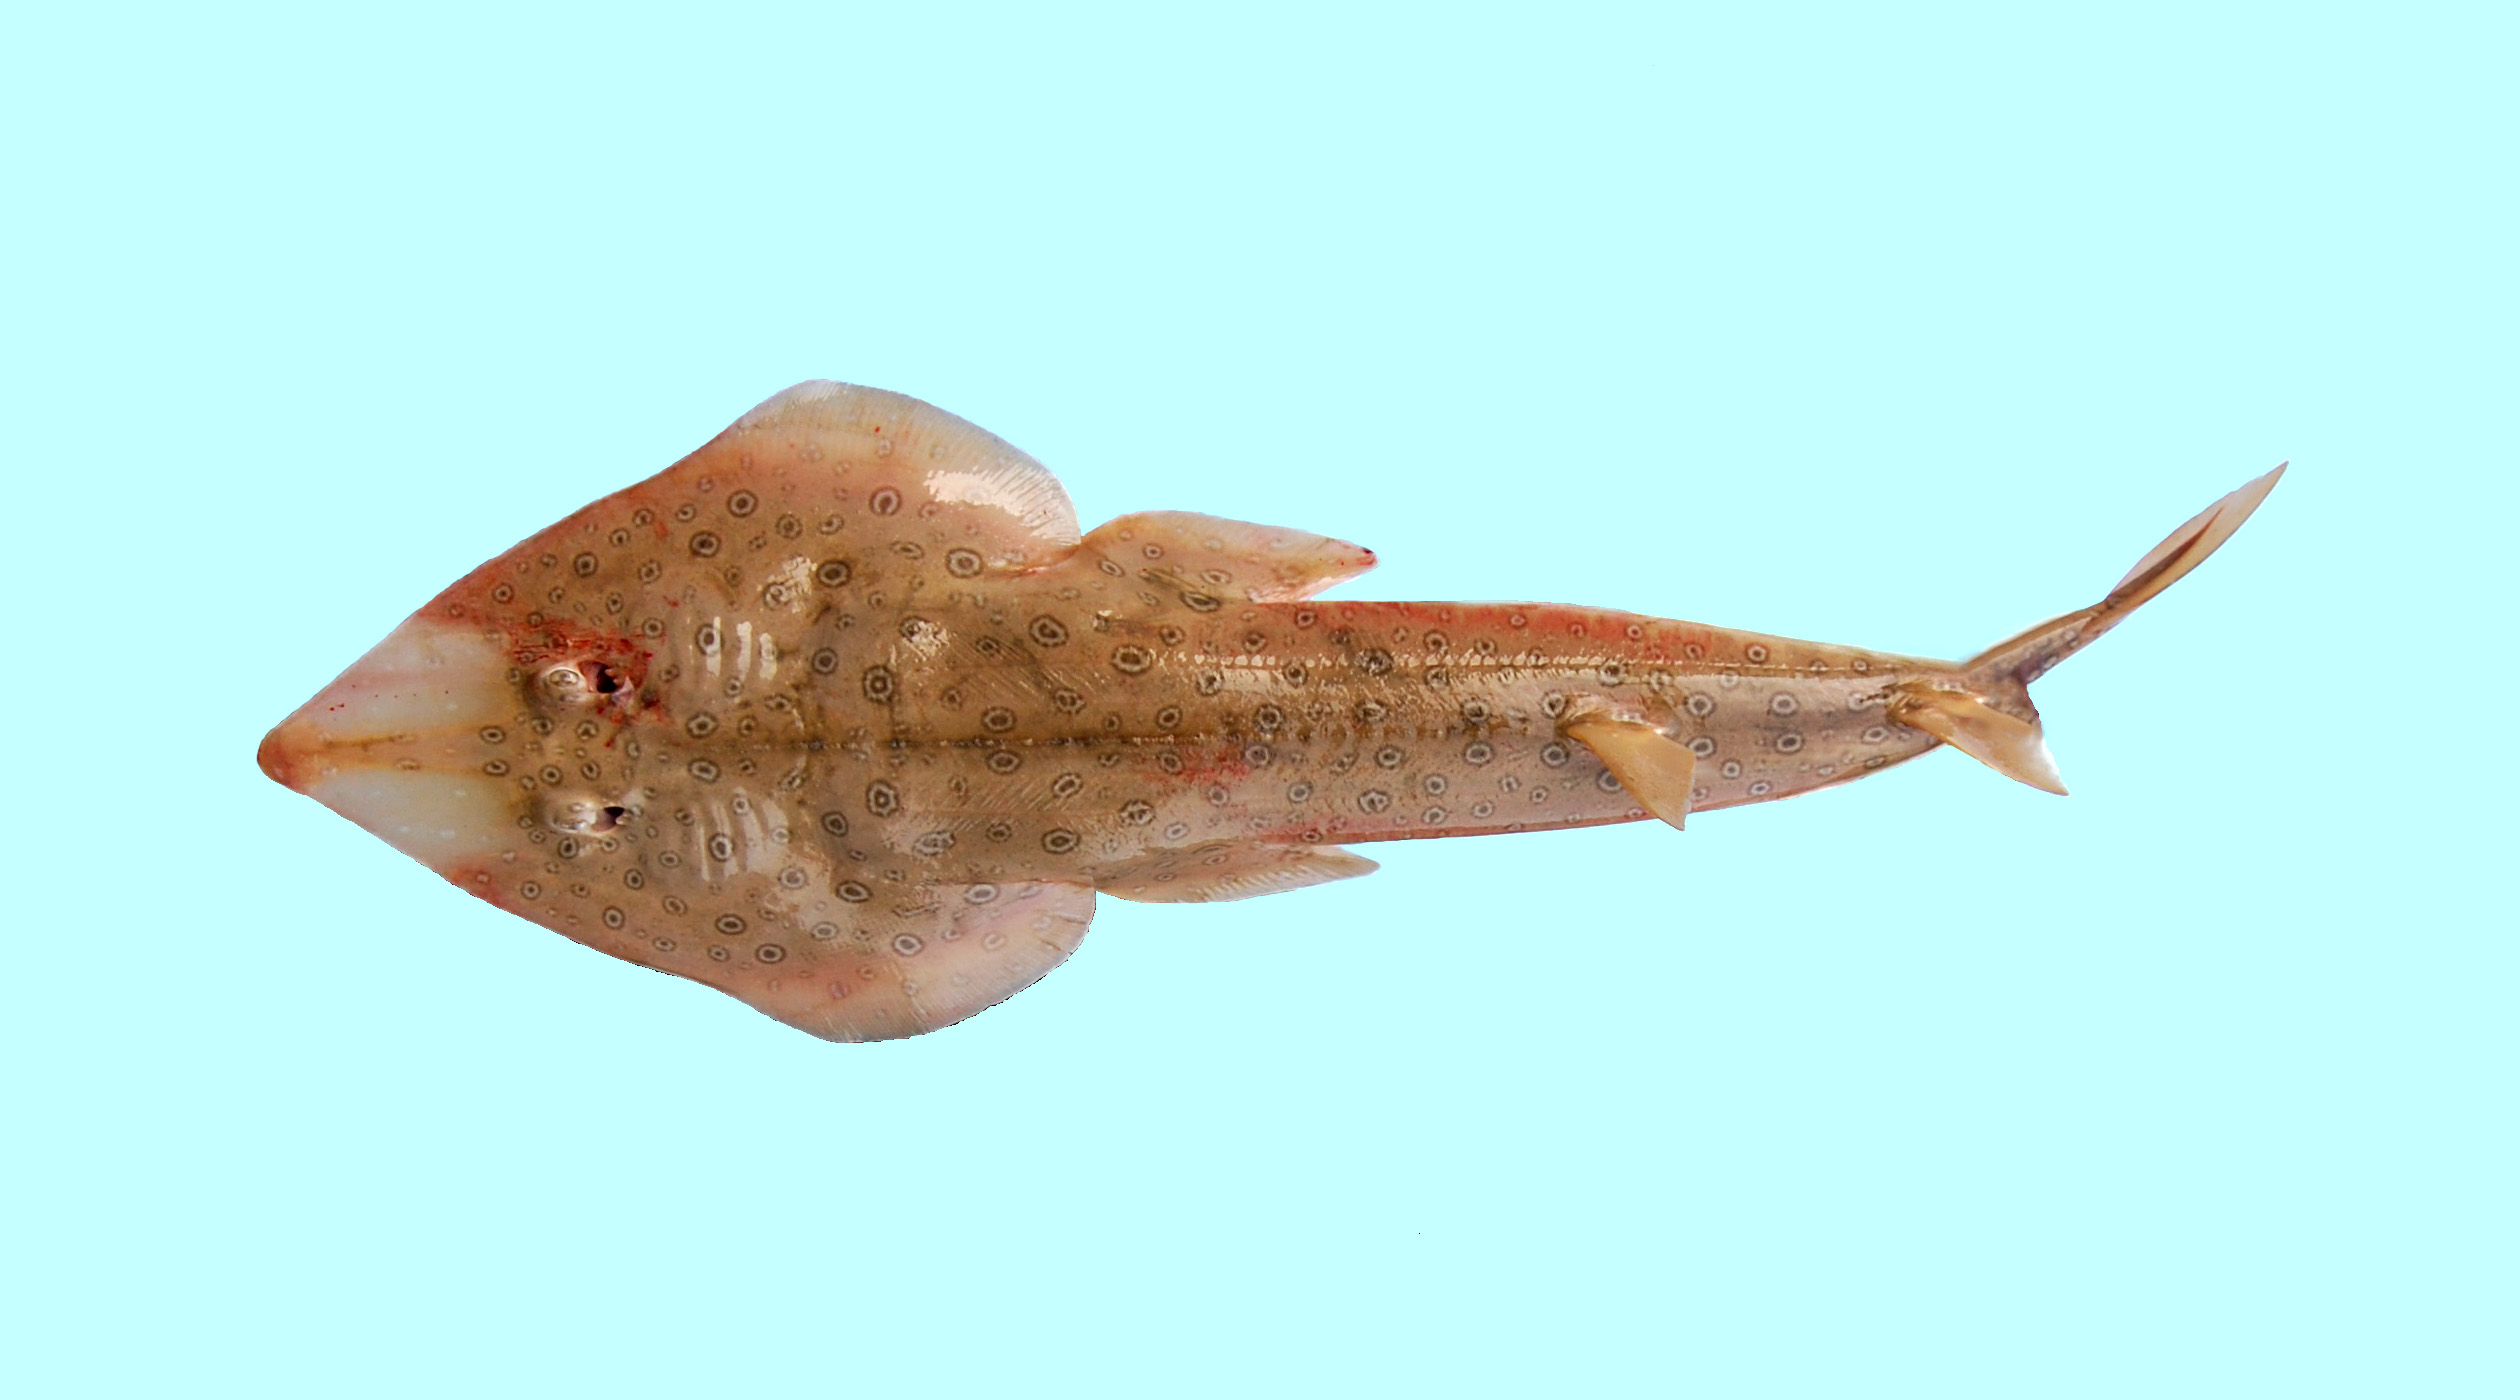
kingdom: Animalia
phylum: Chordata
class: Elasmobranchii
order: Rhinopristiformes
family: Rhinobatidae
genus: Acroteriobatus
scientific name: Acroteriobatus annulatus
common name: Lesser guitarfish
